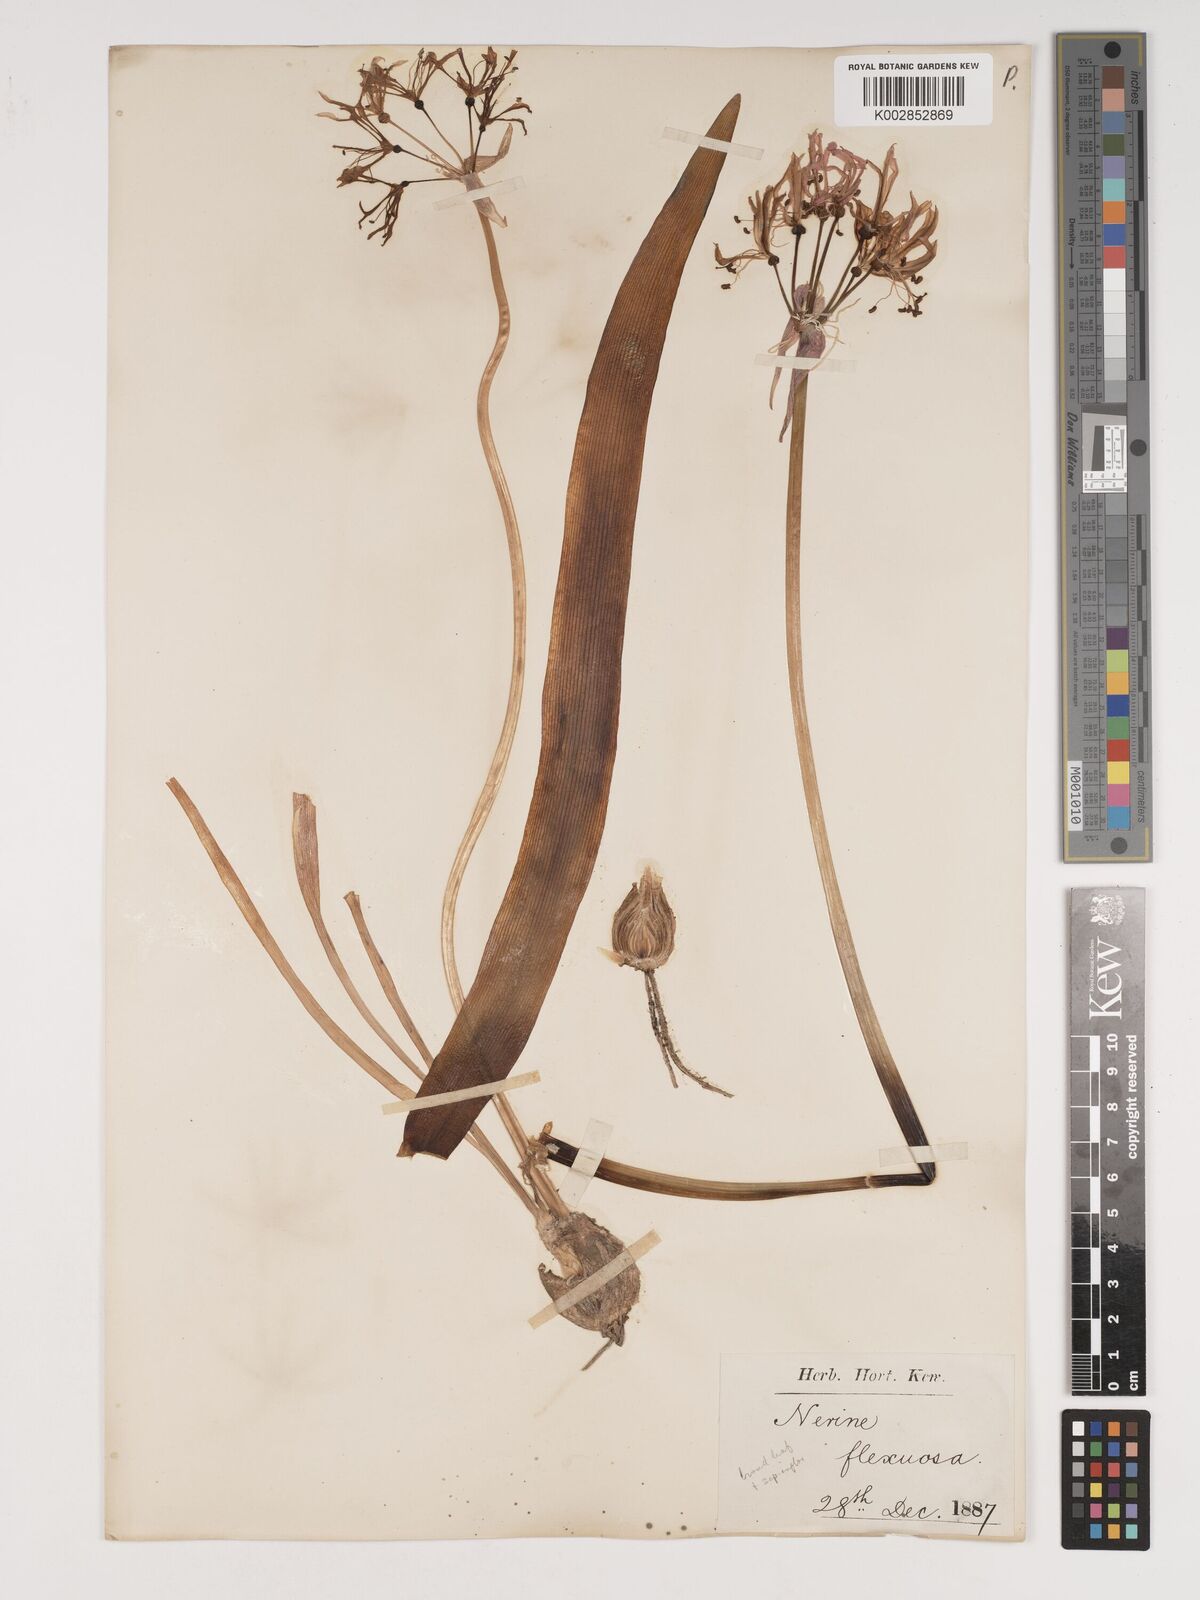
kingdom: Plantae
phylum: Tracheophyta
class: Liliopsida
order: Asparagales
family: Amaryllidaceae
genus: Nerine
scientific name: Nerine undulata
